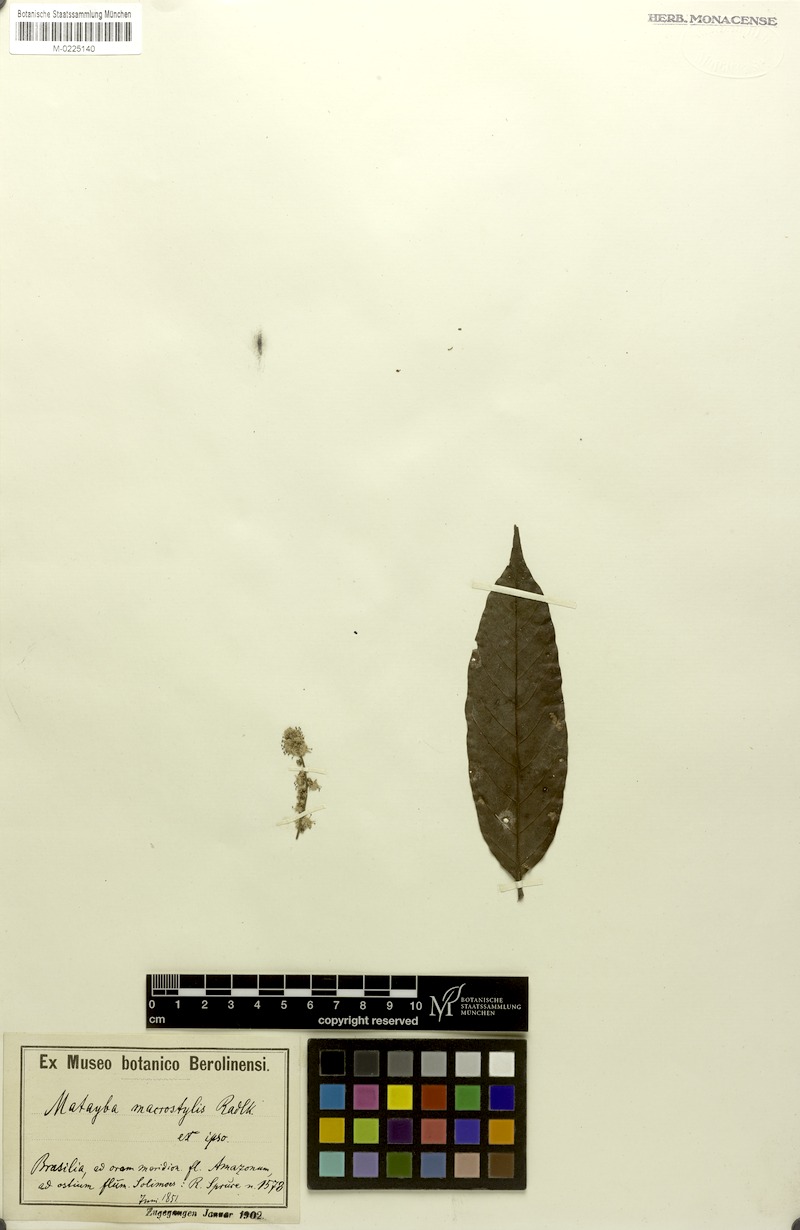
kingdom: Plantae
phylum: Tracheophyta
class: Magnoliopsida
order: Sapindales
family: Sapindaceae
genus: Cupania
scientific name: Cupania macrostylis
